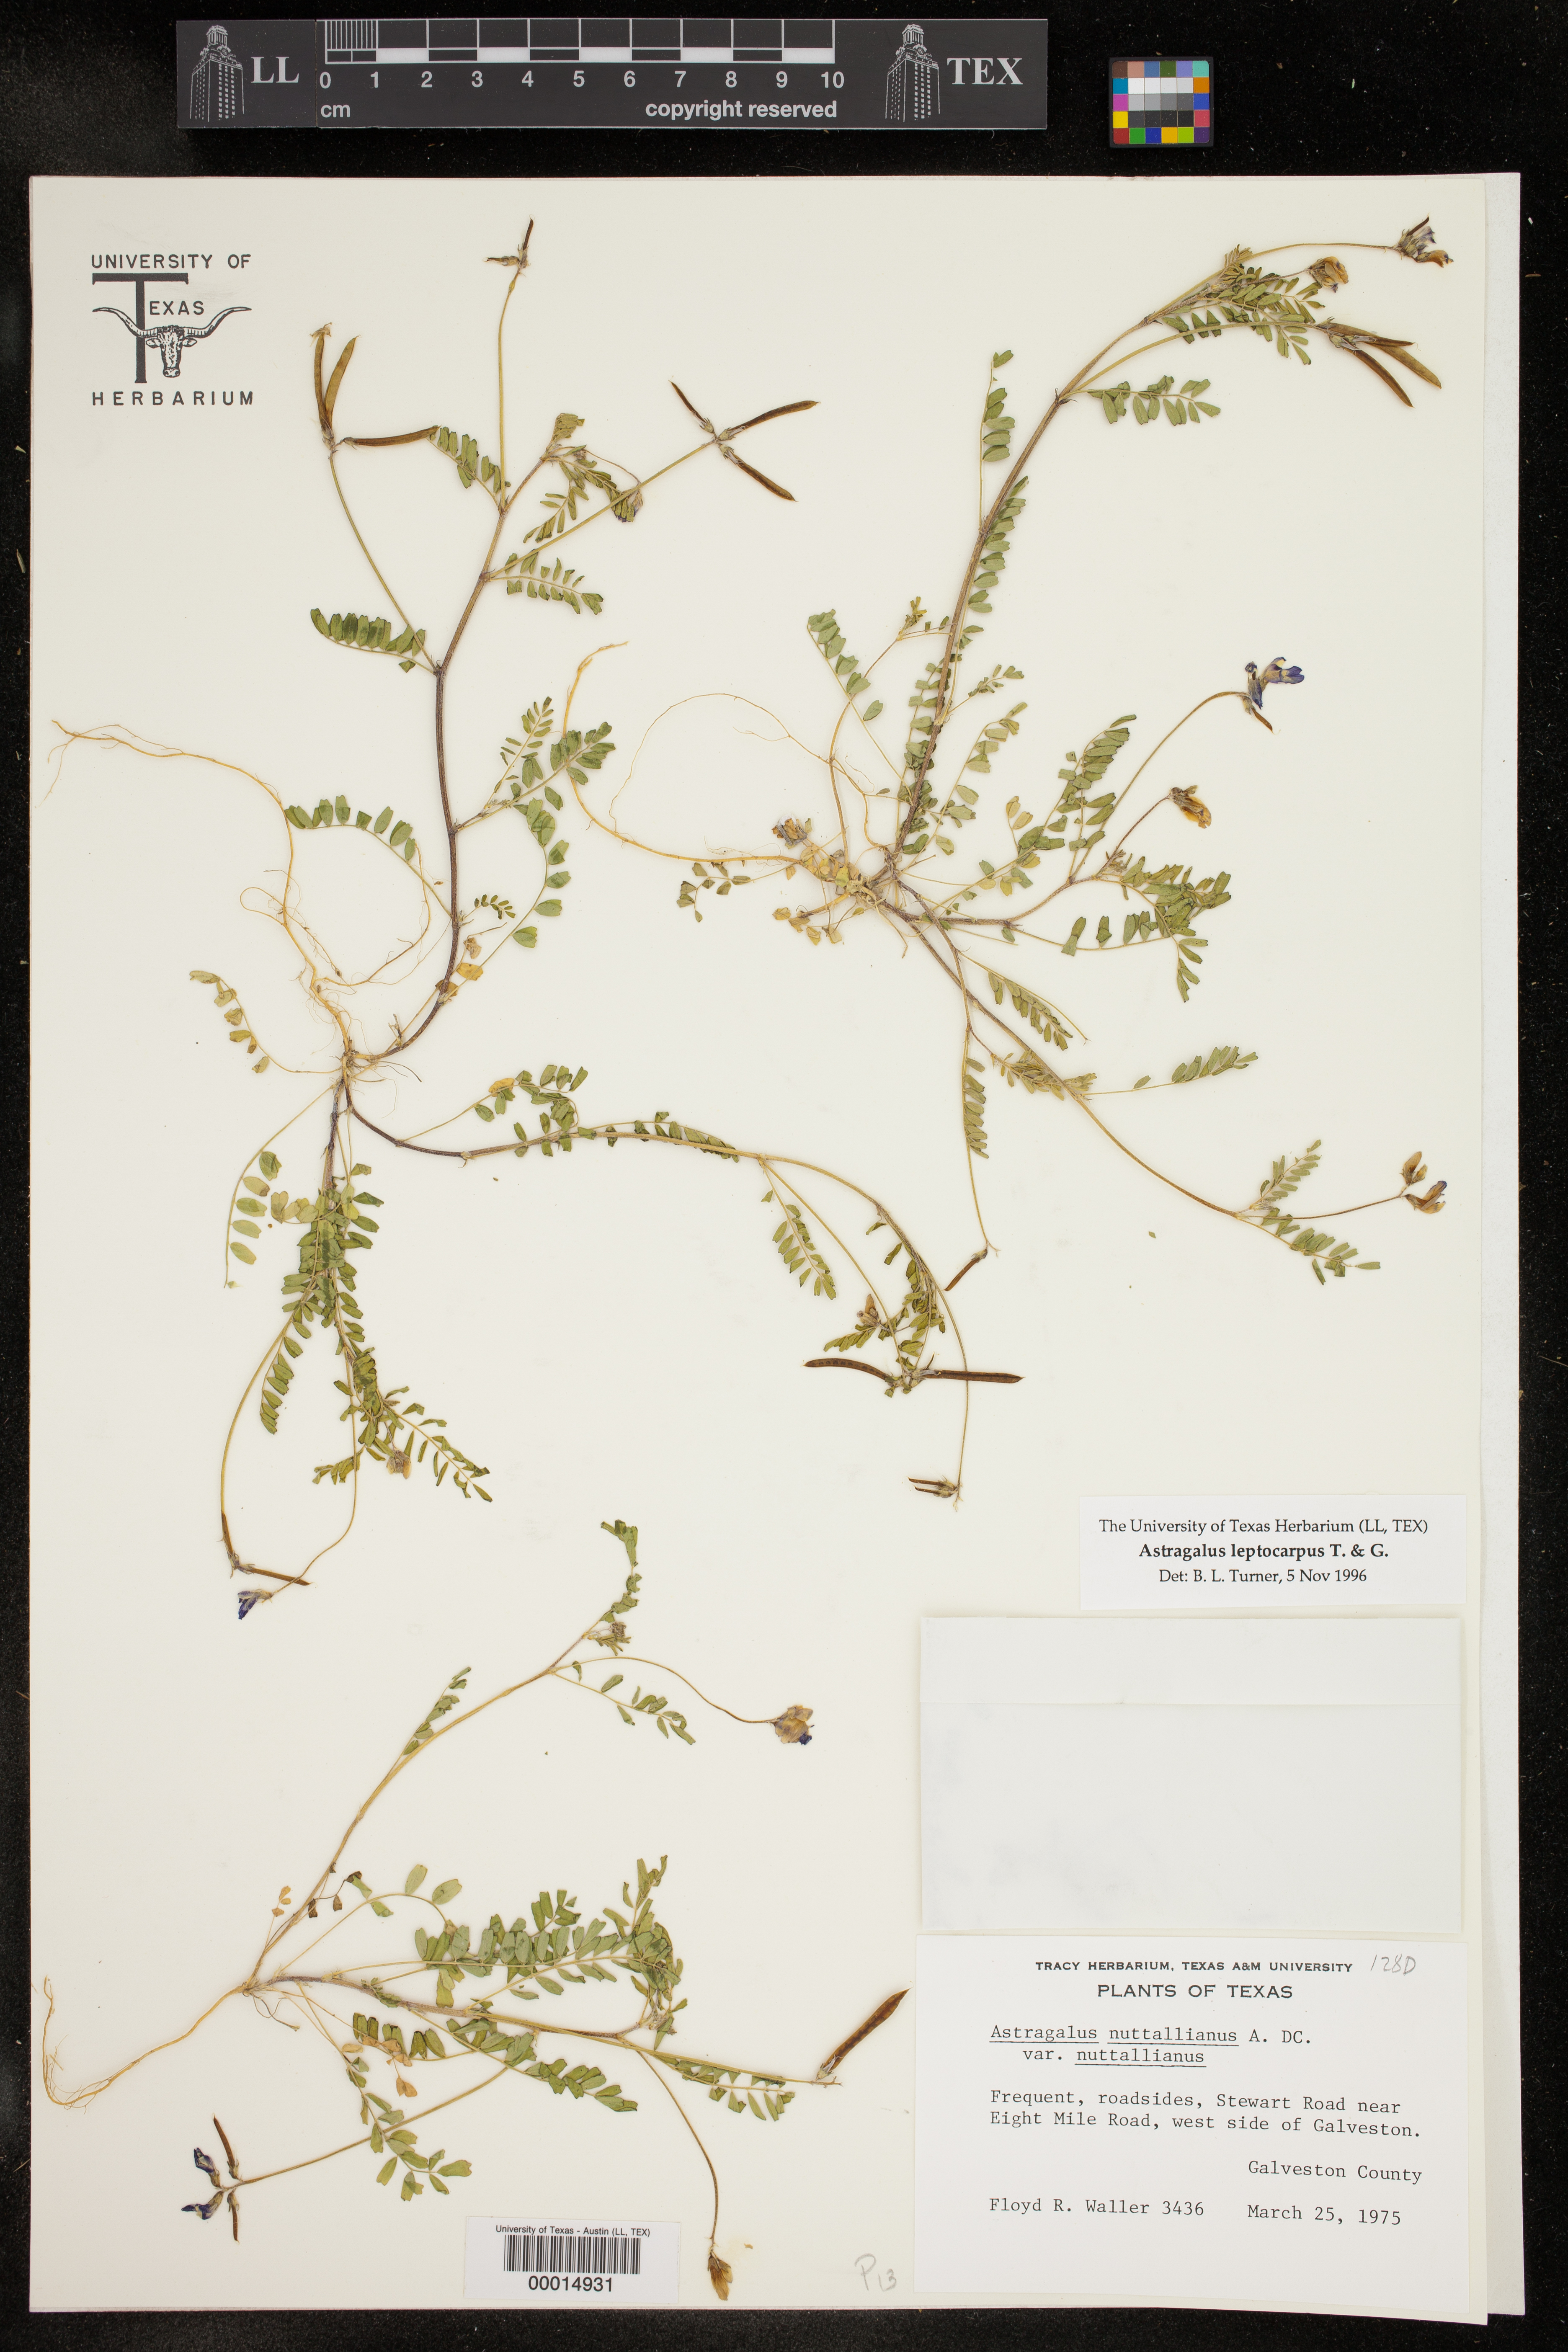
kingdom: Plantae
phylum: Tracheophyta
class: Magnoliopsida
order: Fabales
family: Fabaceae
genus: Astragalus
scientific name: Astragalus leptocarpus
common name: Bodkin milk-vetch
